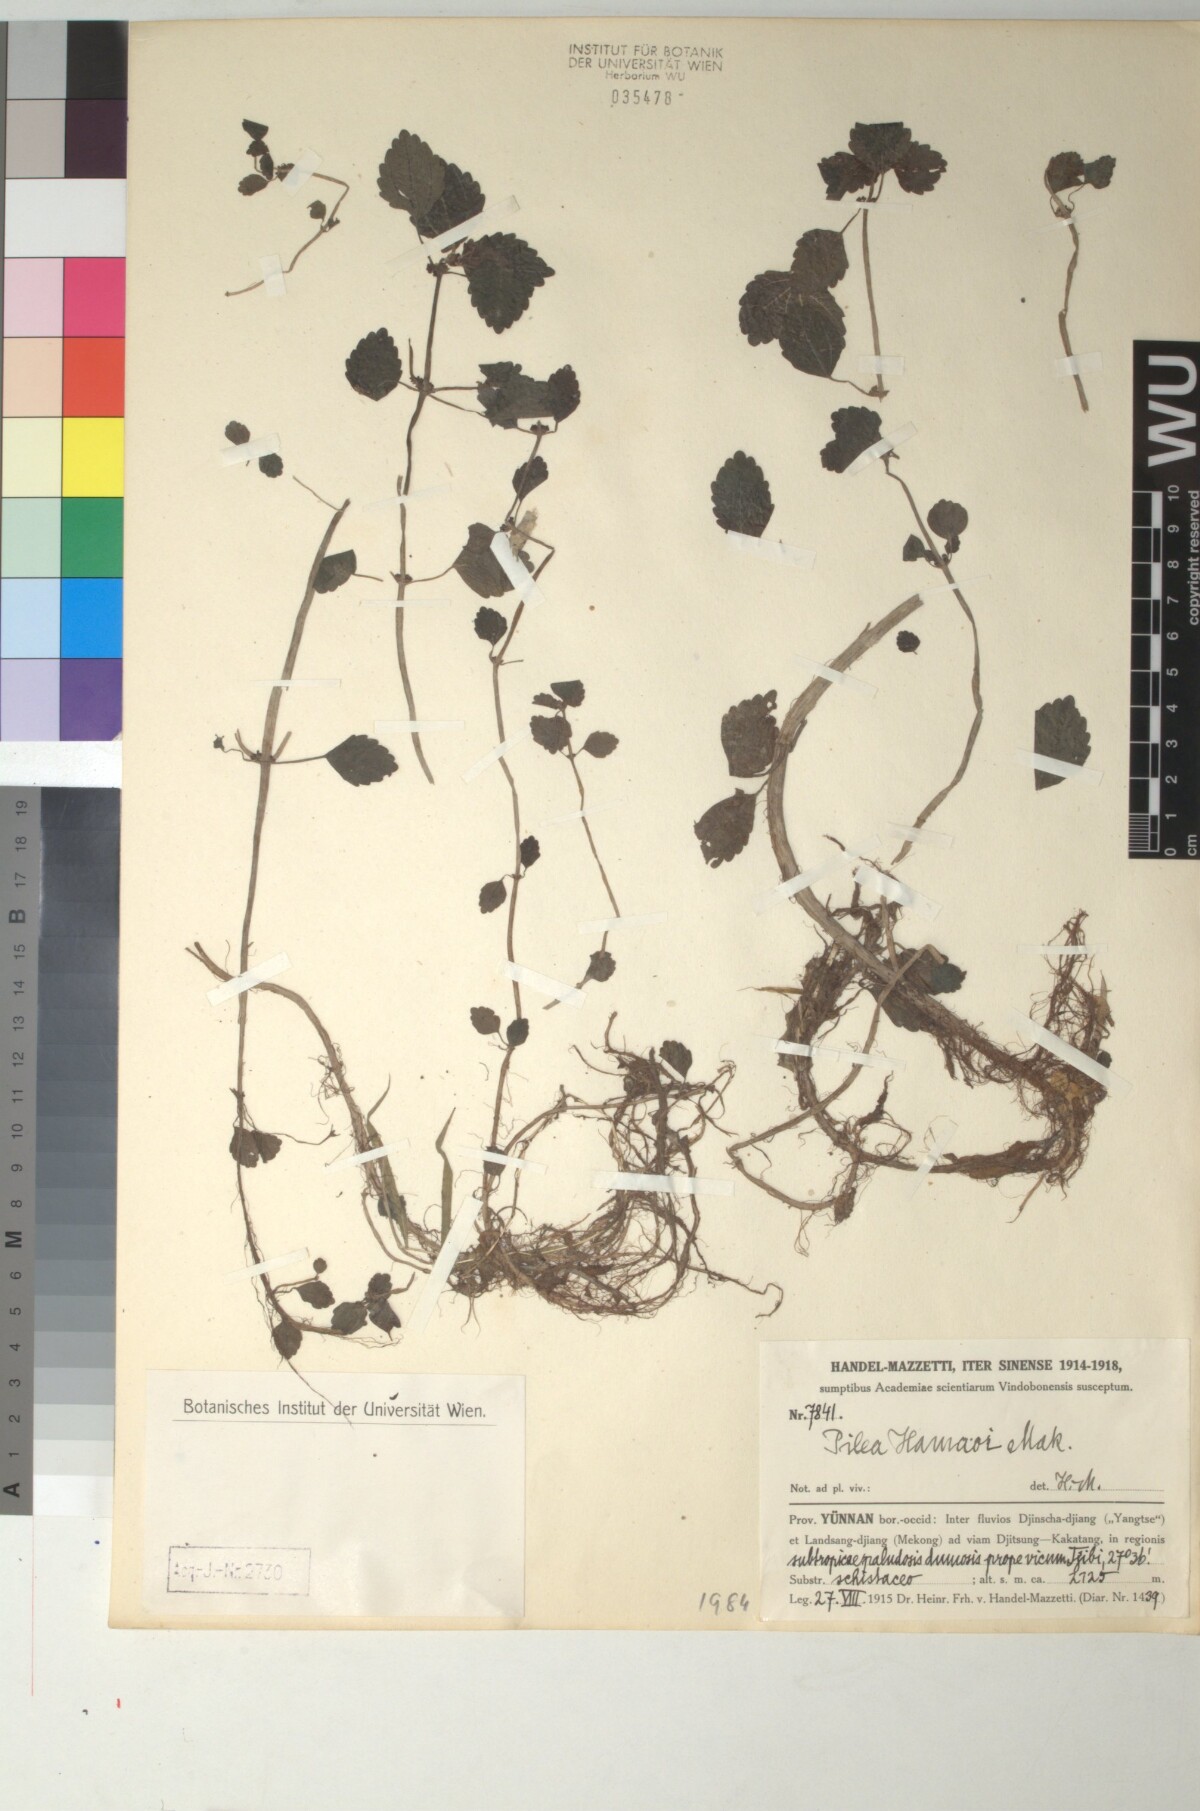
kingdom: Plantae
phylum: Tracheophyta
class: Magnoliopsida
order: Rosales
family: Urticaceae
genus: Pilea
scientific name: Pilea hamaoi
